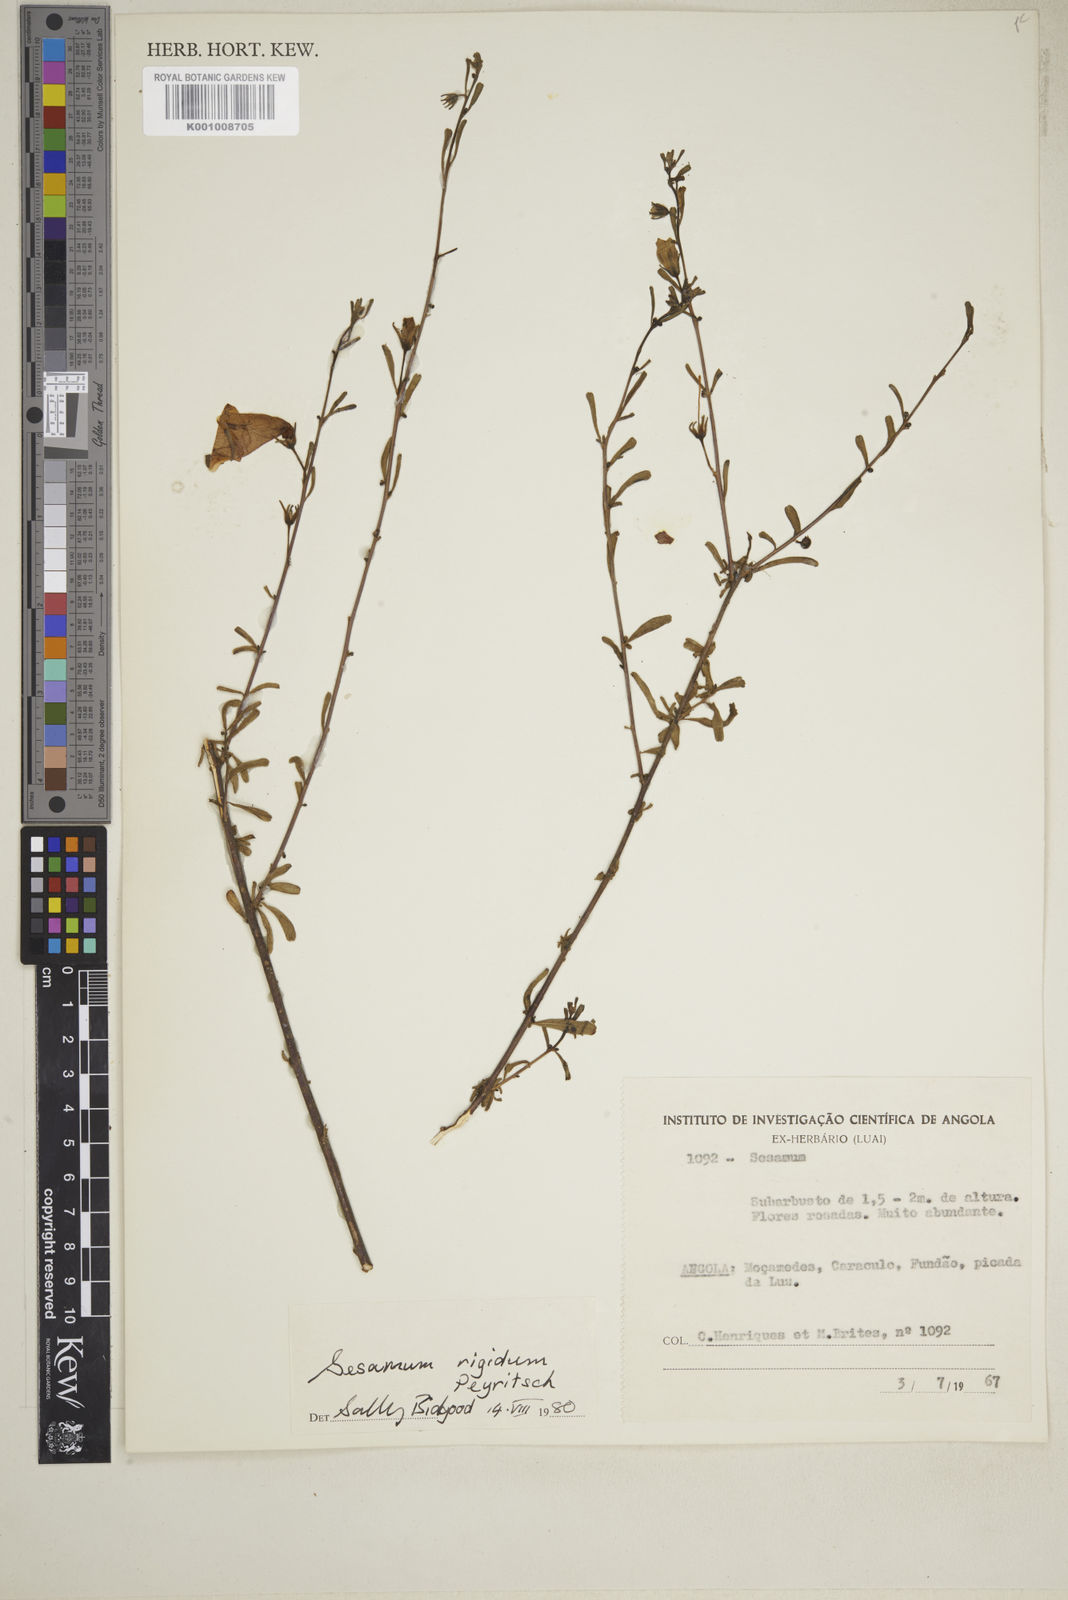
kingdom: Plantae
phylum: Tracheophyta
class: Magnoliopsida
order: Lamiales
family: Pedaliaceae
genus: Sesamum
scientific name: Sesamum rigidum
